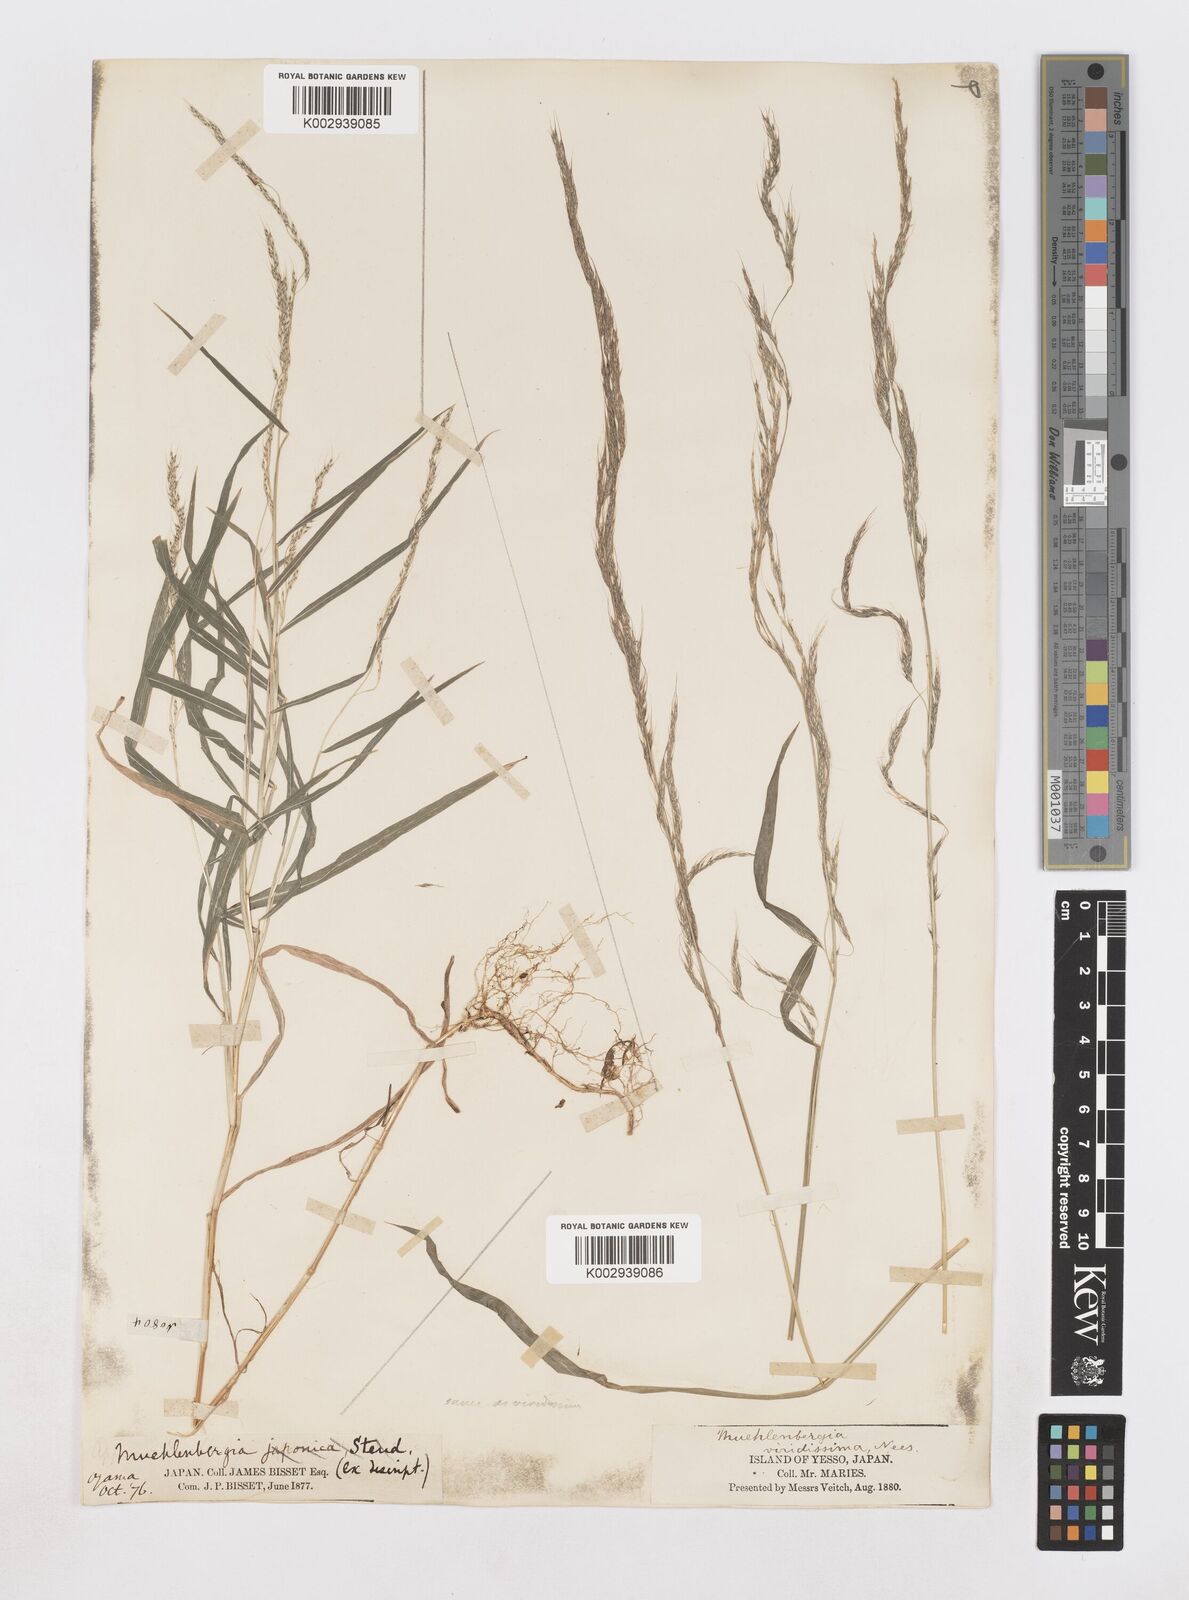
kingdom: Plantae
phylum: Tracheophyta
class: Liliopsida
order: Poales
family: Poaceae
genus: Muhlenbergia
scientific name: Muhlenbergia huegelii
